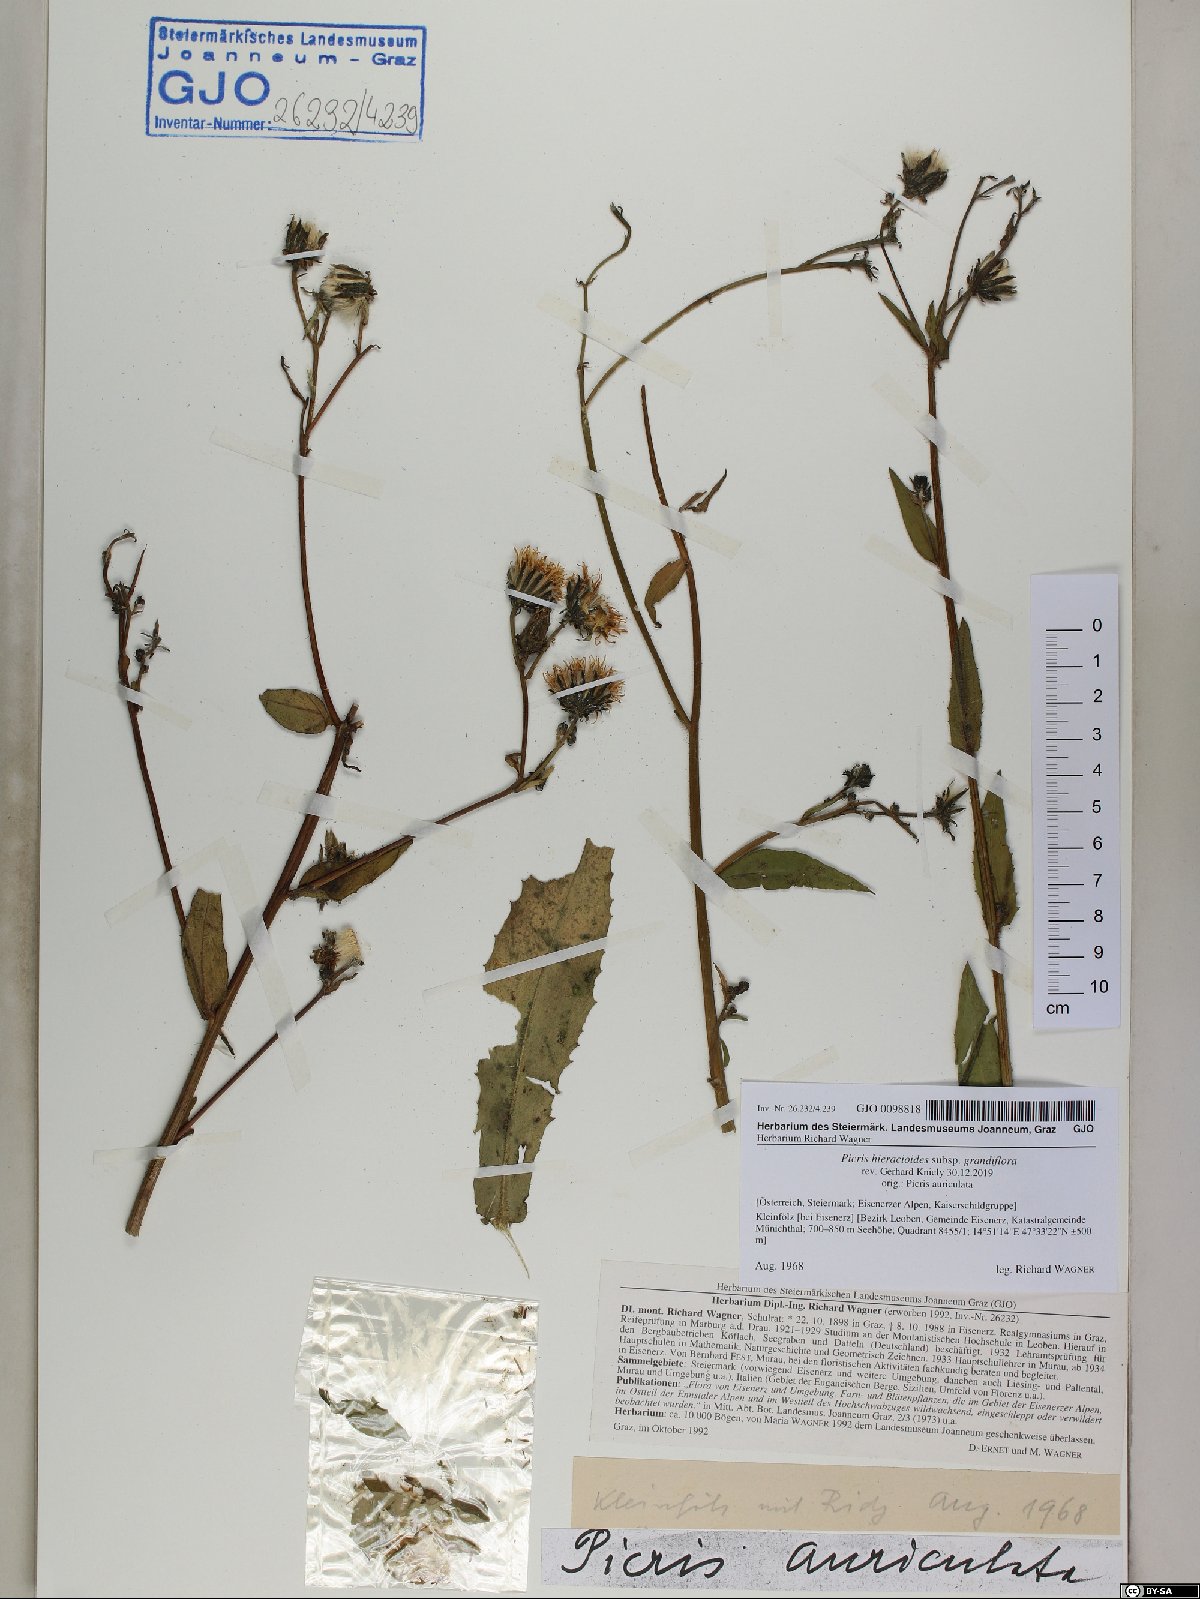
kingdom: Plantae
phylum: Tracheophyta
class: Magnoliopsida
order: Asterales
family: Asteraceae
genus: Picris
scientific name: Picris hieracioides
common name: Hawkweed oxtongue
